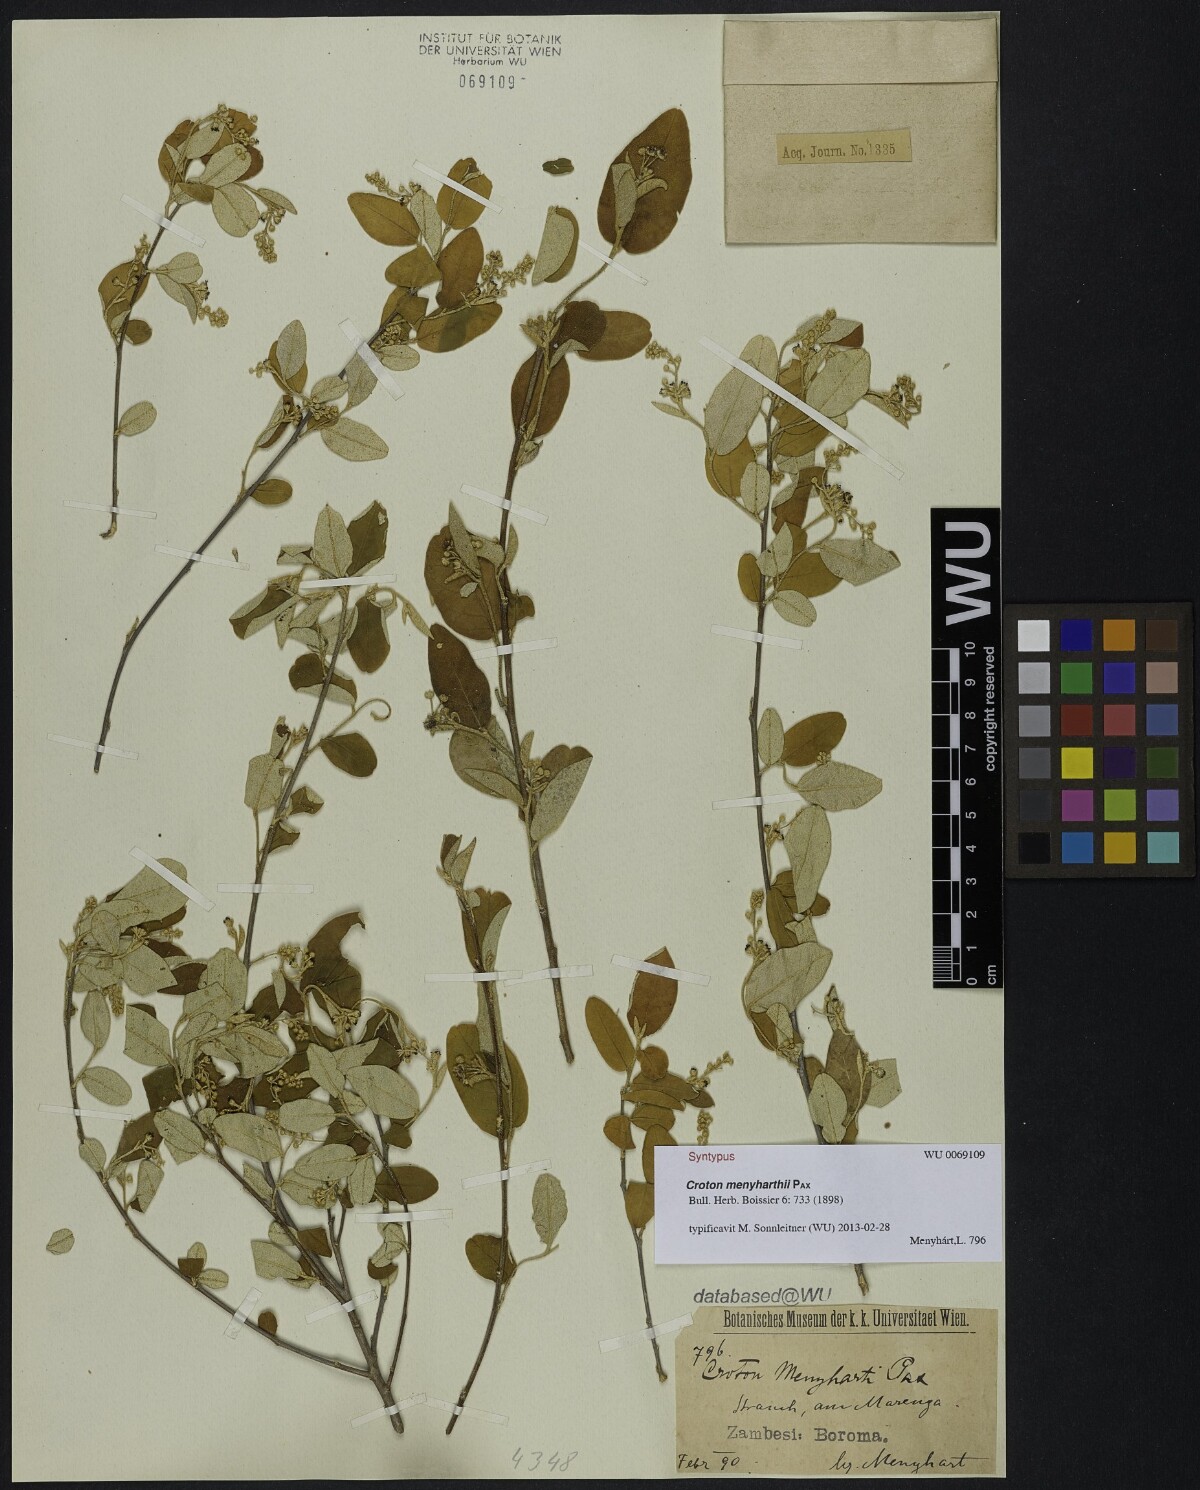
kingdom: Plantae
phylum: Tracheophyta
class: Magnoliopsida
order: Malpighiales
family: Euphorbiaceae
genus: Croton
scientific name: Croton menyharthii
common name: Rough-leaved croton
